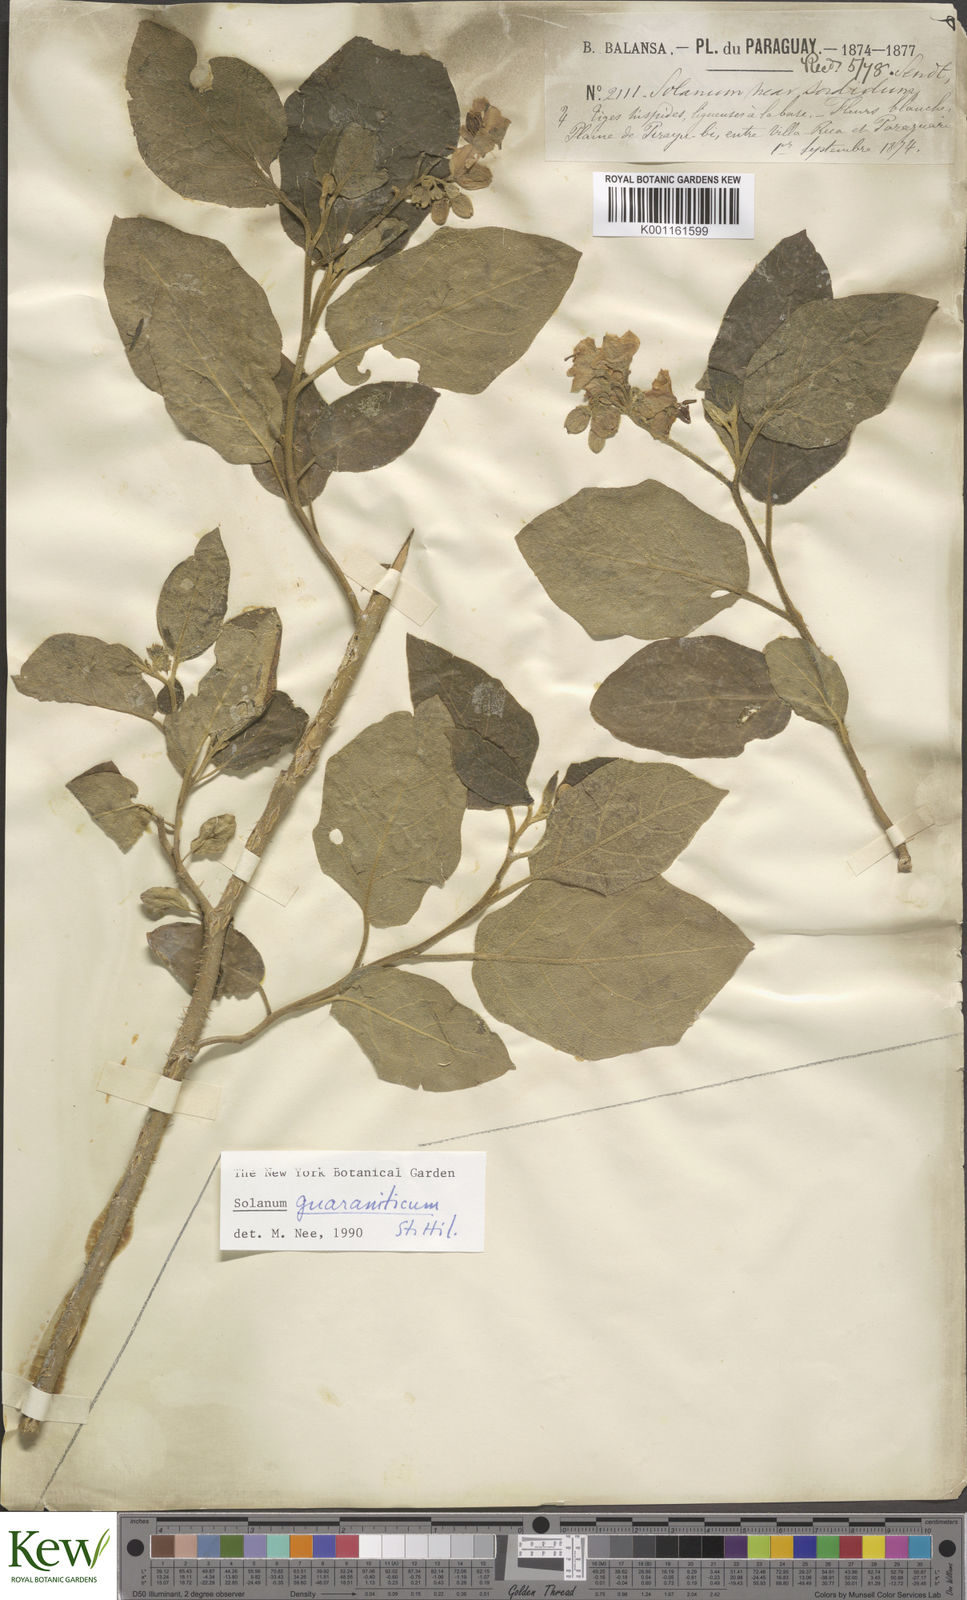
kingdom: Plantae
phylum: Tracheophyta
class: Magnoliopsida
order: Solanales
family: Solanaceae
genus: Solanum
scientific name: Solanum guaraniticum
